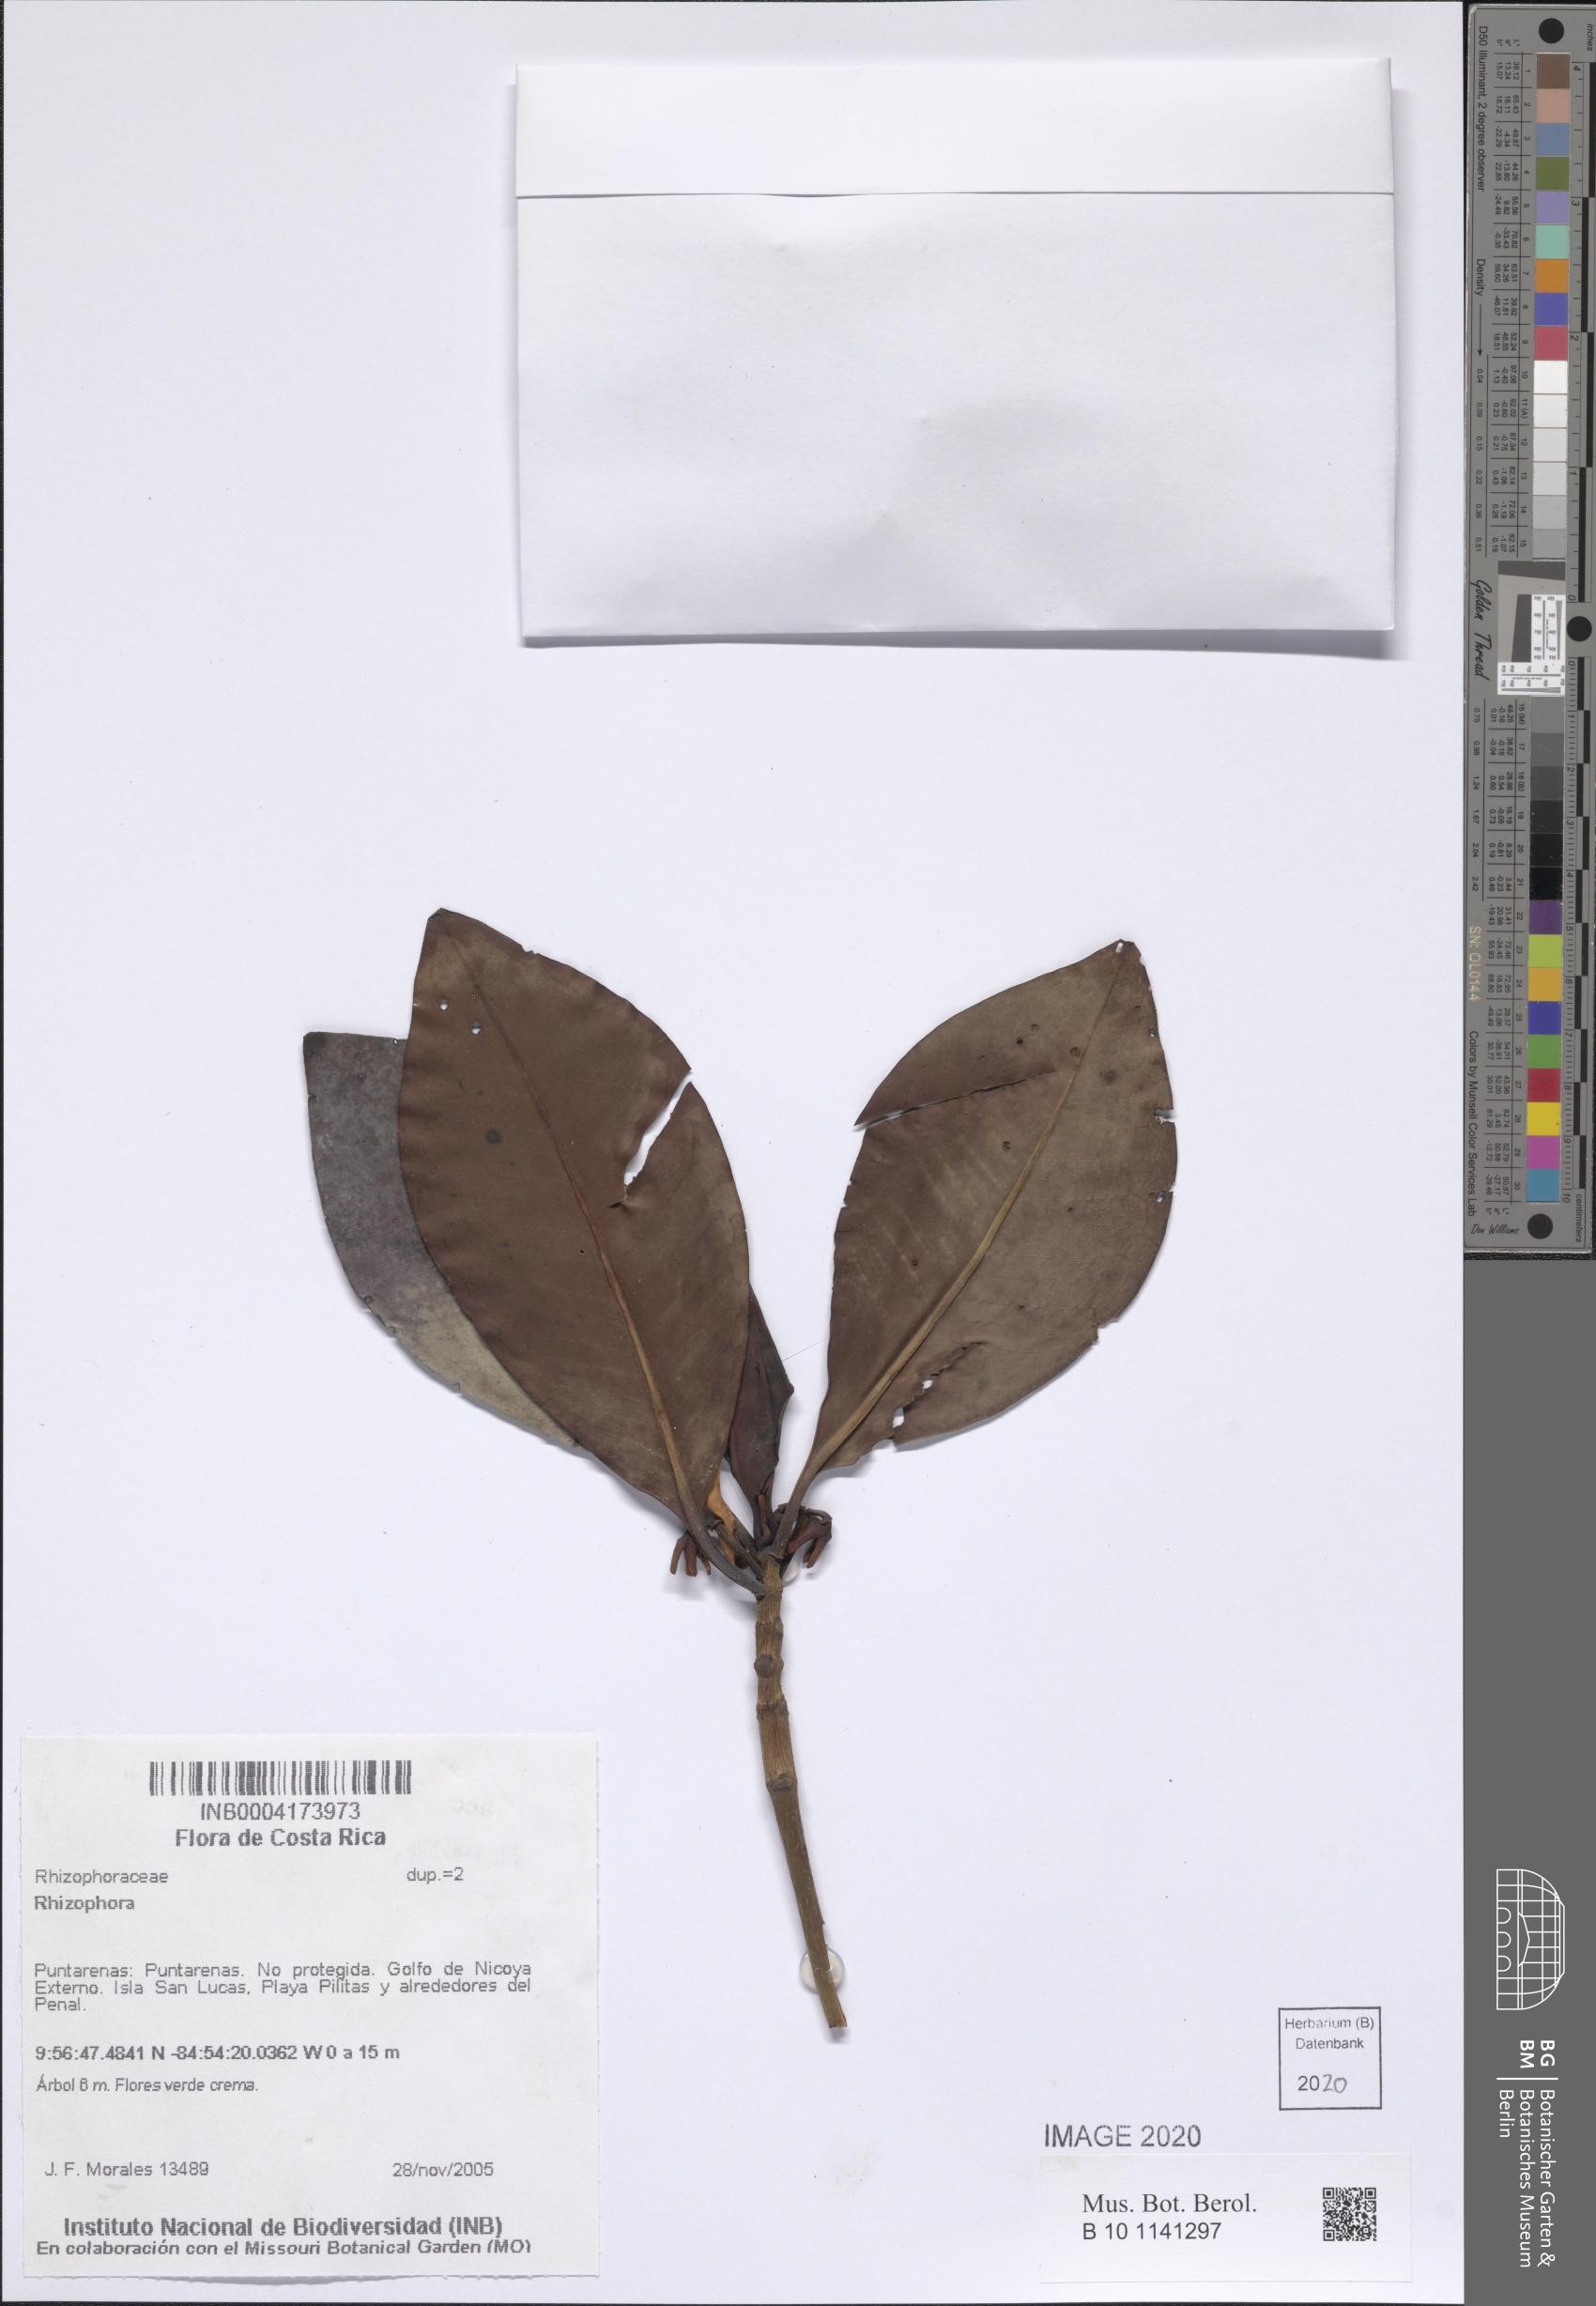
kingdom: Plantae
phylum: Tracheophyta
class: Magnoliopsida
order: Malpighiales
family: Rhizophoraceae
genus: Rhizophora
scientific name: Rhizophora
